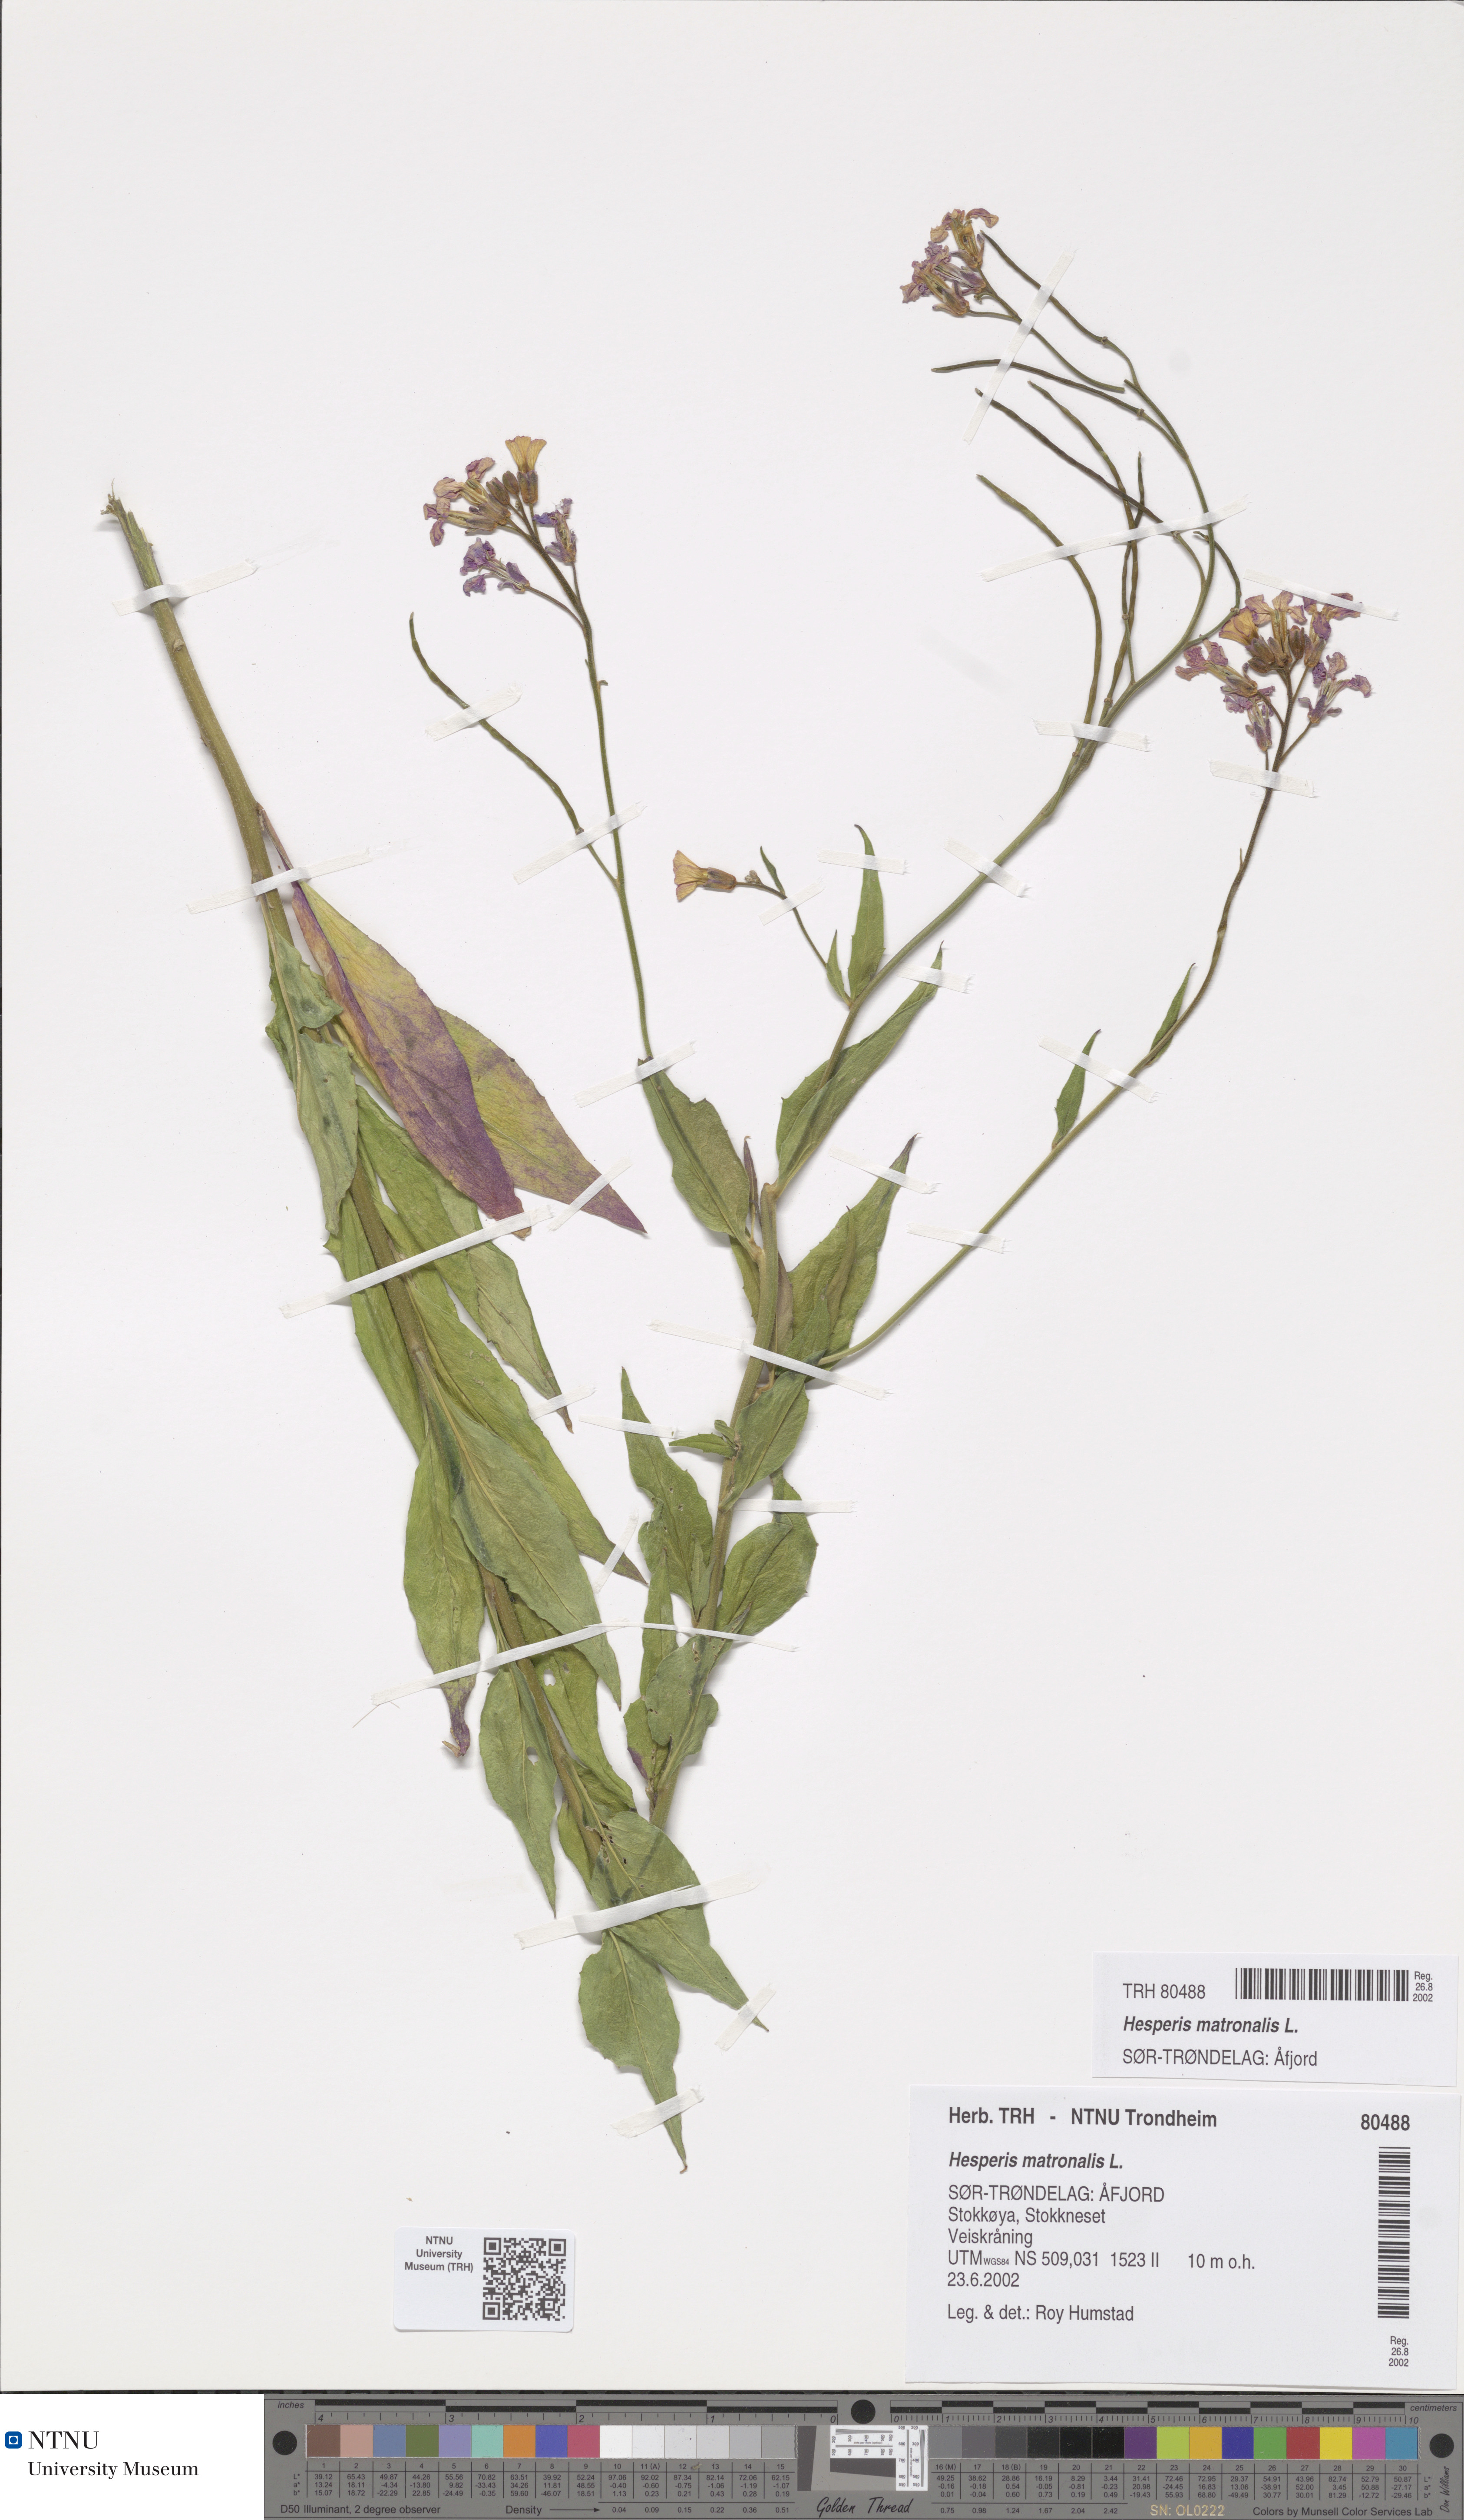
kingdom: Plantae
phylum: Tracheophyta
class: Magnoliopsida
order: Brassicales
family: Brassicaceae
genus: Hesperis
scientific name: Hesperis matronalis
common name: Dame's-violet
